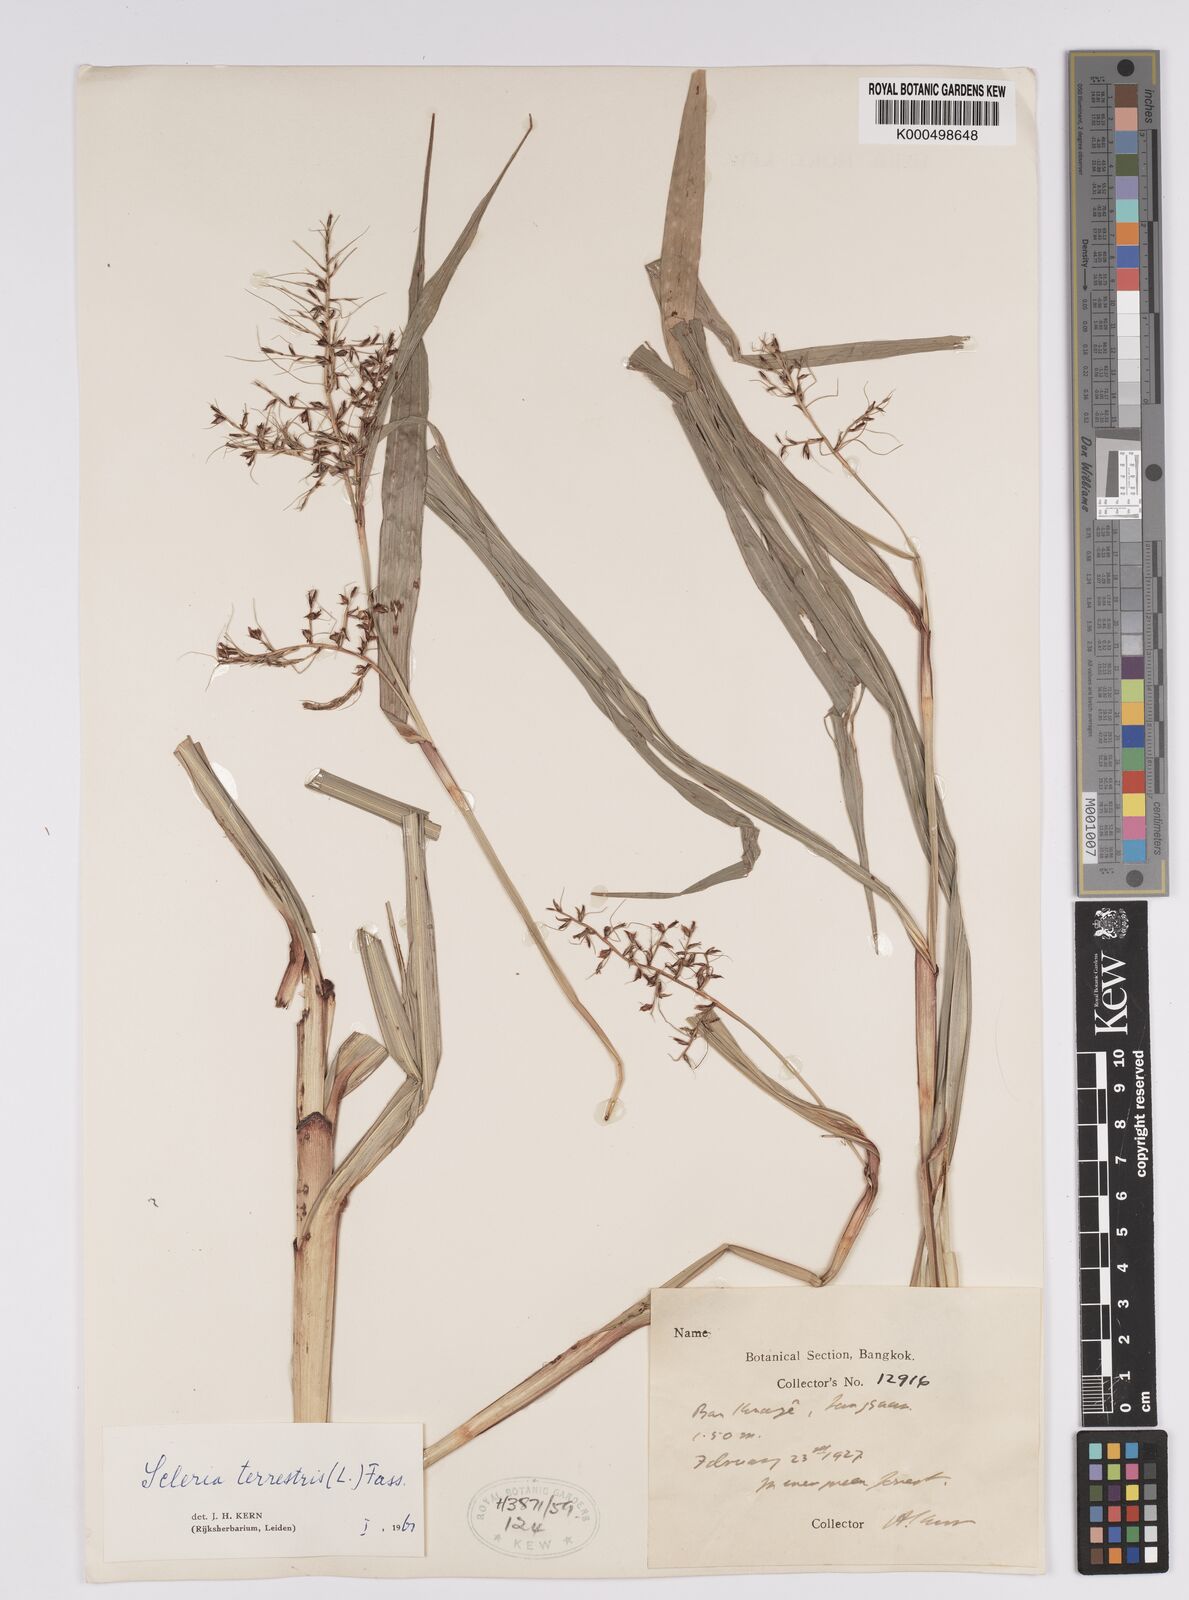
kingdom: Plantae
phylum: Tracheophyta
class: Liliopsida
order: Poales
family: Cyperaceae
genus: Scleria
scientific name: Scleria terrestris
